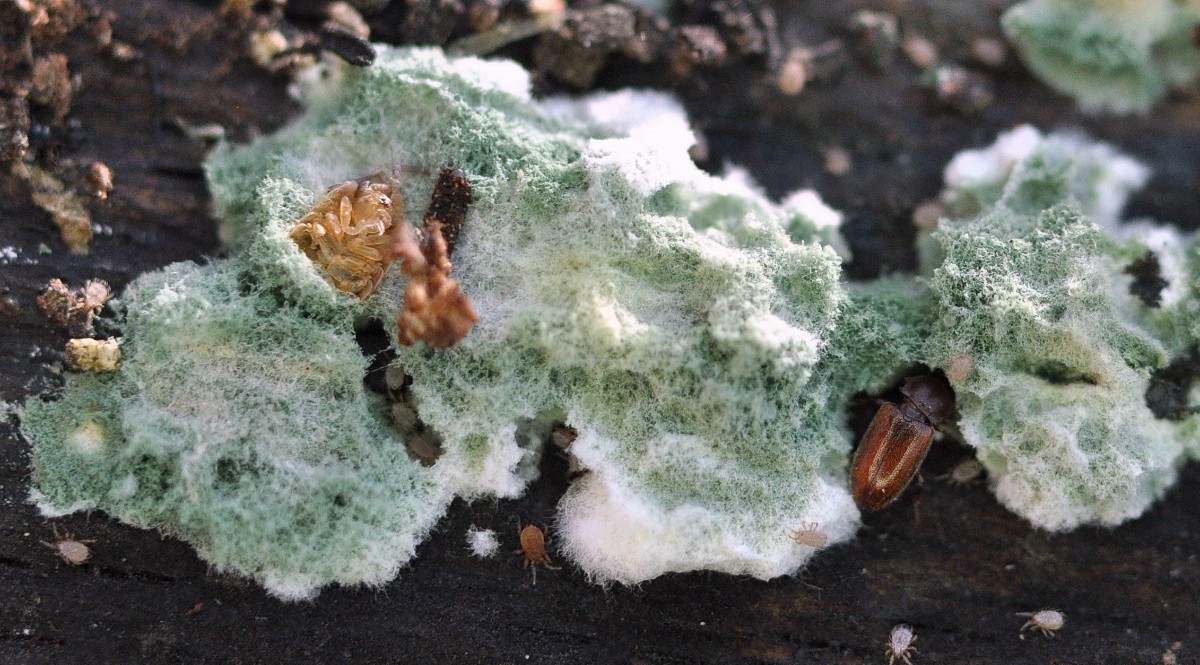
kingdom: Fungi
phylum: Ascomycota
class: Sordariomycetes
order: Hypocreales
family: Hypocreaceae
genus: Trichoderma
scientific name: Trichoderma
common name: kødkerne
